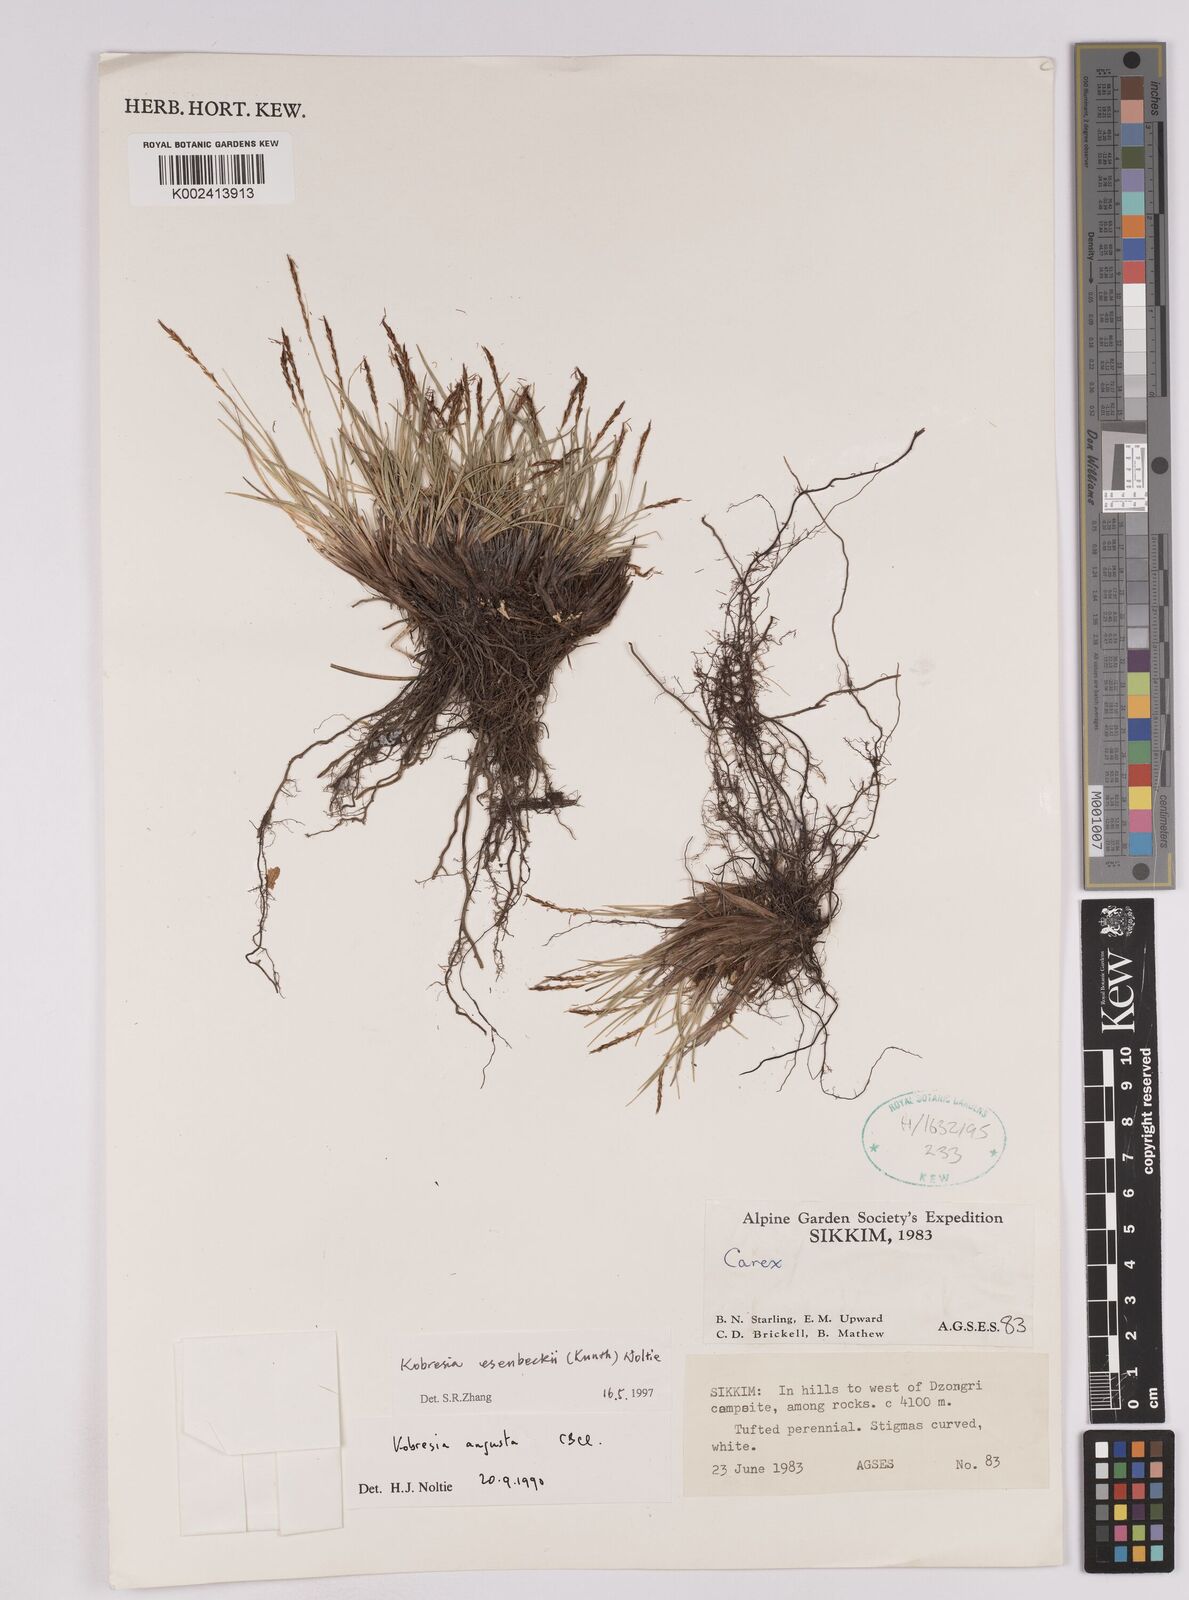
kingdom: Plantae
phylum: Tracheophyta
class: Liliopsida
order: Poales
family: Cyperaceae
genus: Carex
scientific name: Carex esenbeckii
